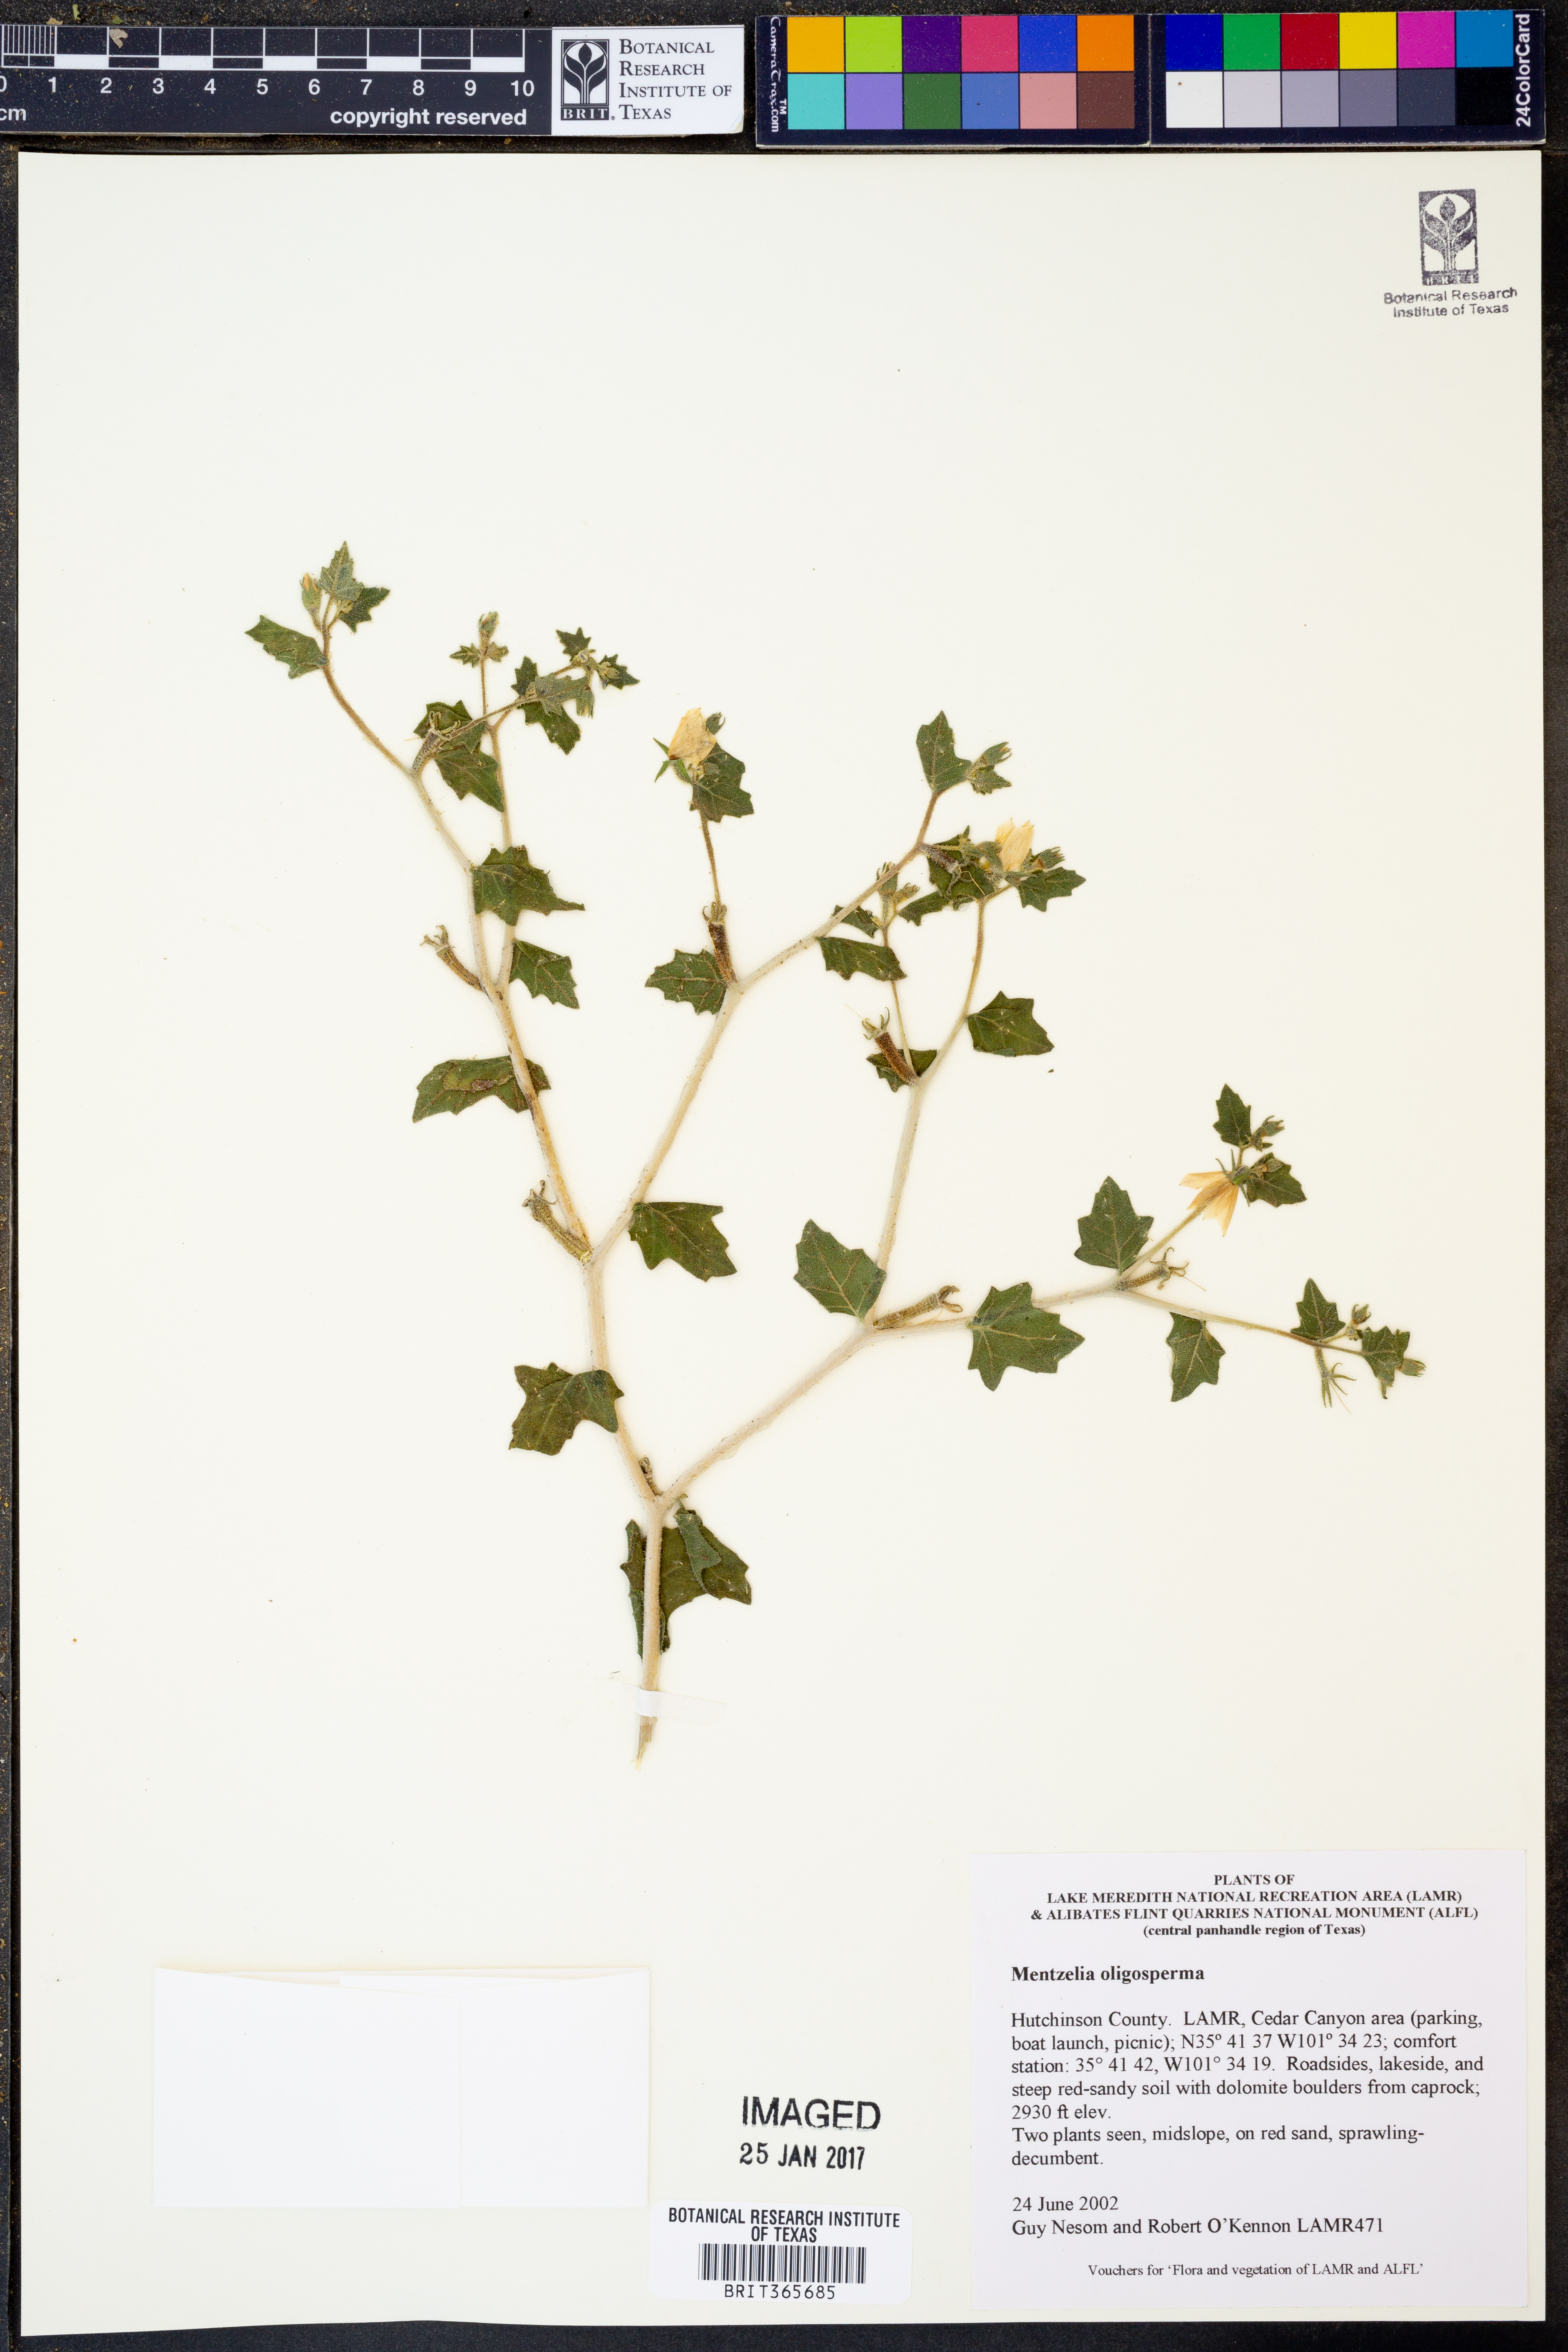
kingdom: Plantae
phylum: Tracheophyta
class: Magnoliopsida
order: Cornales
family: Loasaceae
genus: Mentzelia
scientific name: Mentzelia oligosperma
